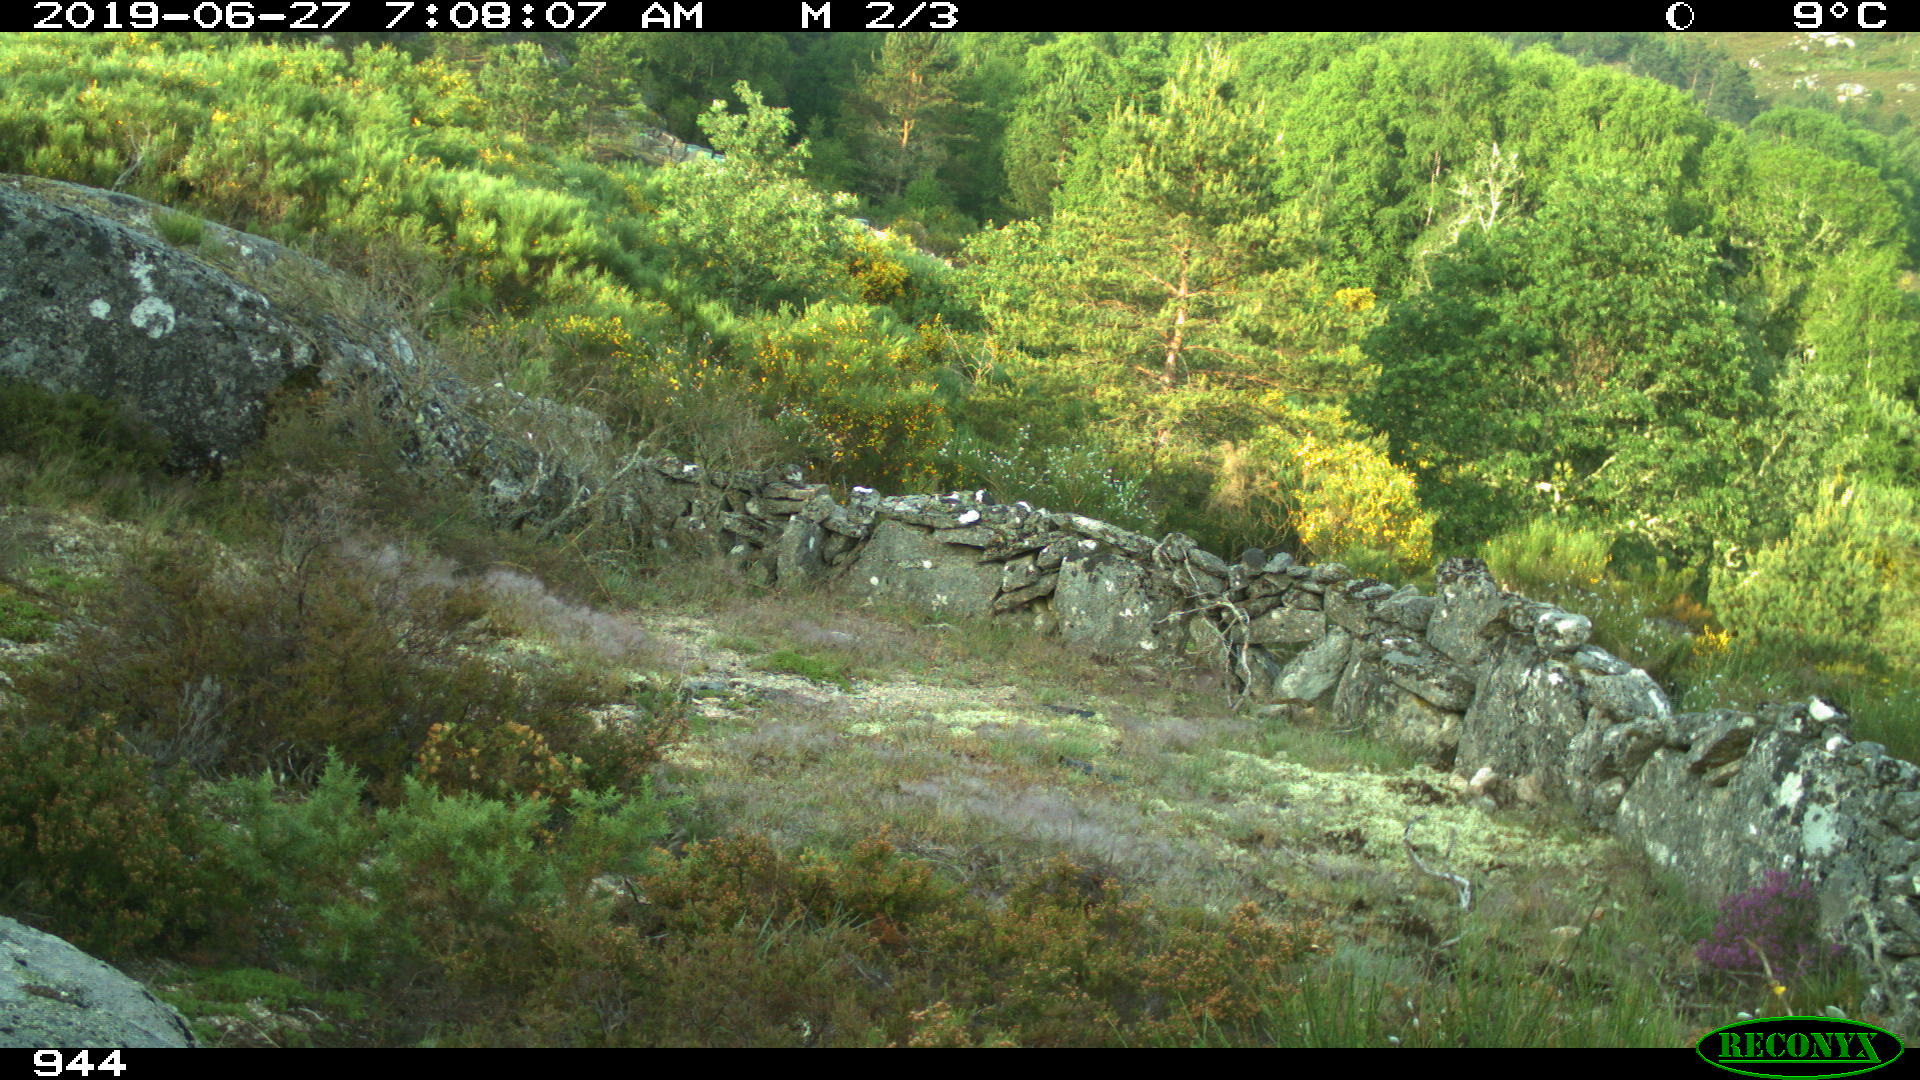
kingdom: Animalia
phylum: Chordata
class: Mammalia
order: Artiodactyla
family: Cervidae
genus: Capreolus
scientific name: Capreolus capreolus
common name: Western roe deer
